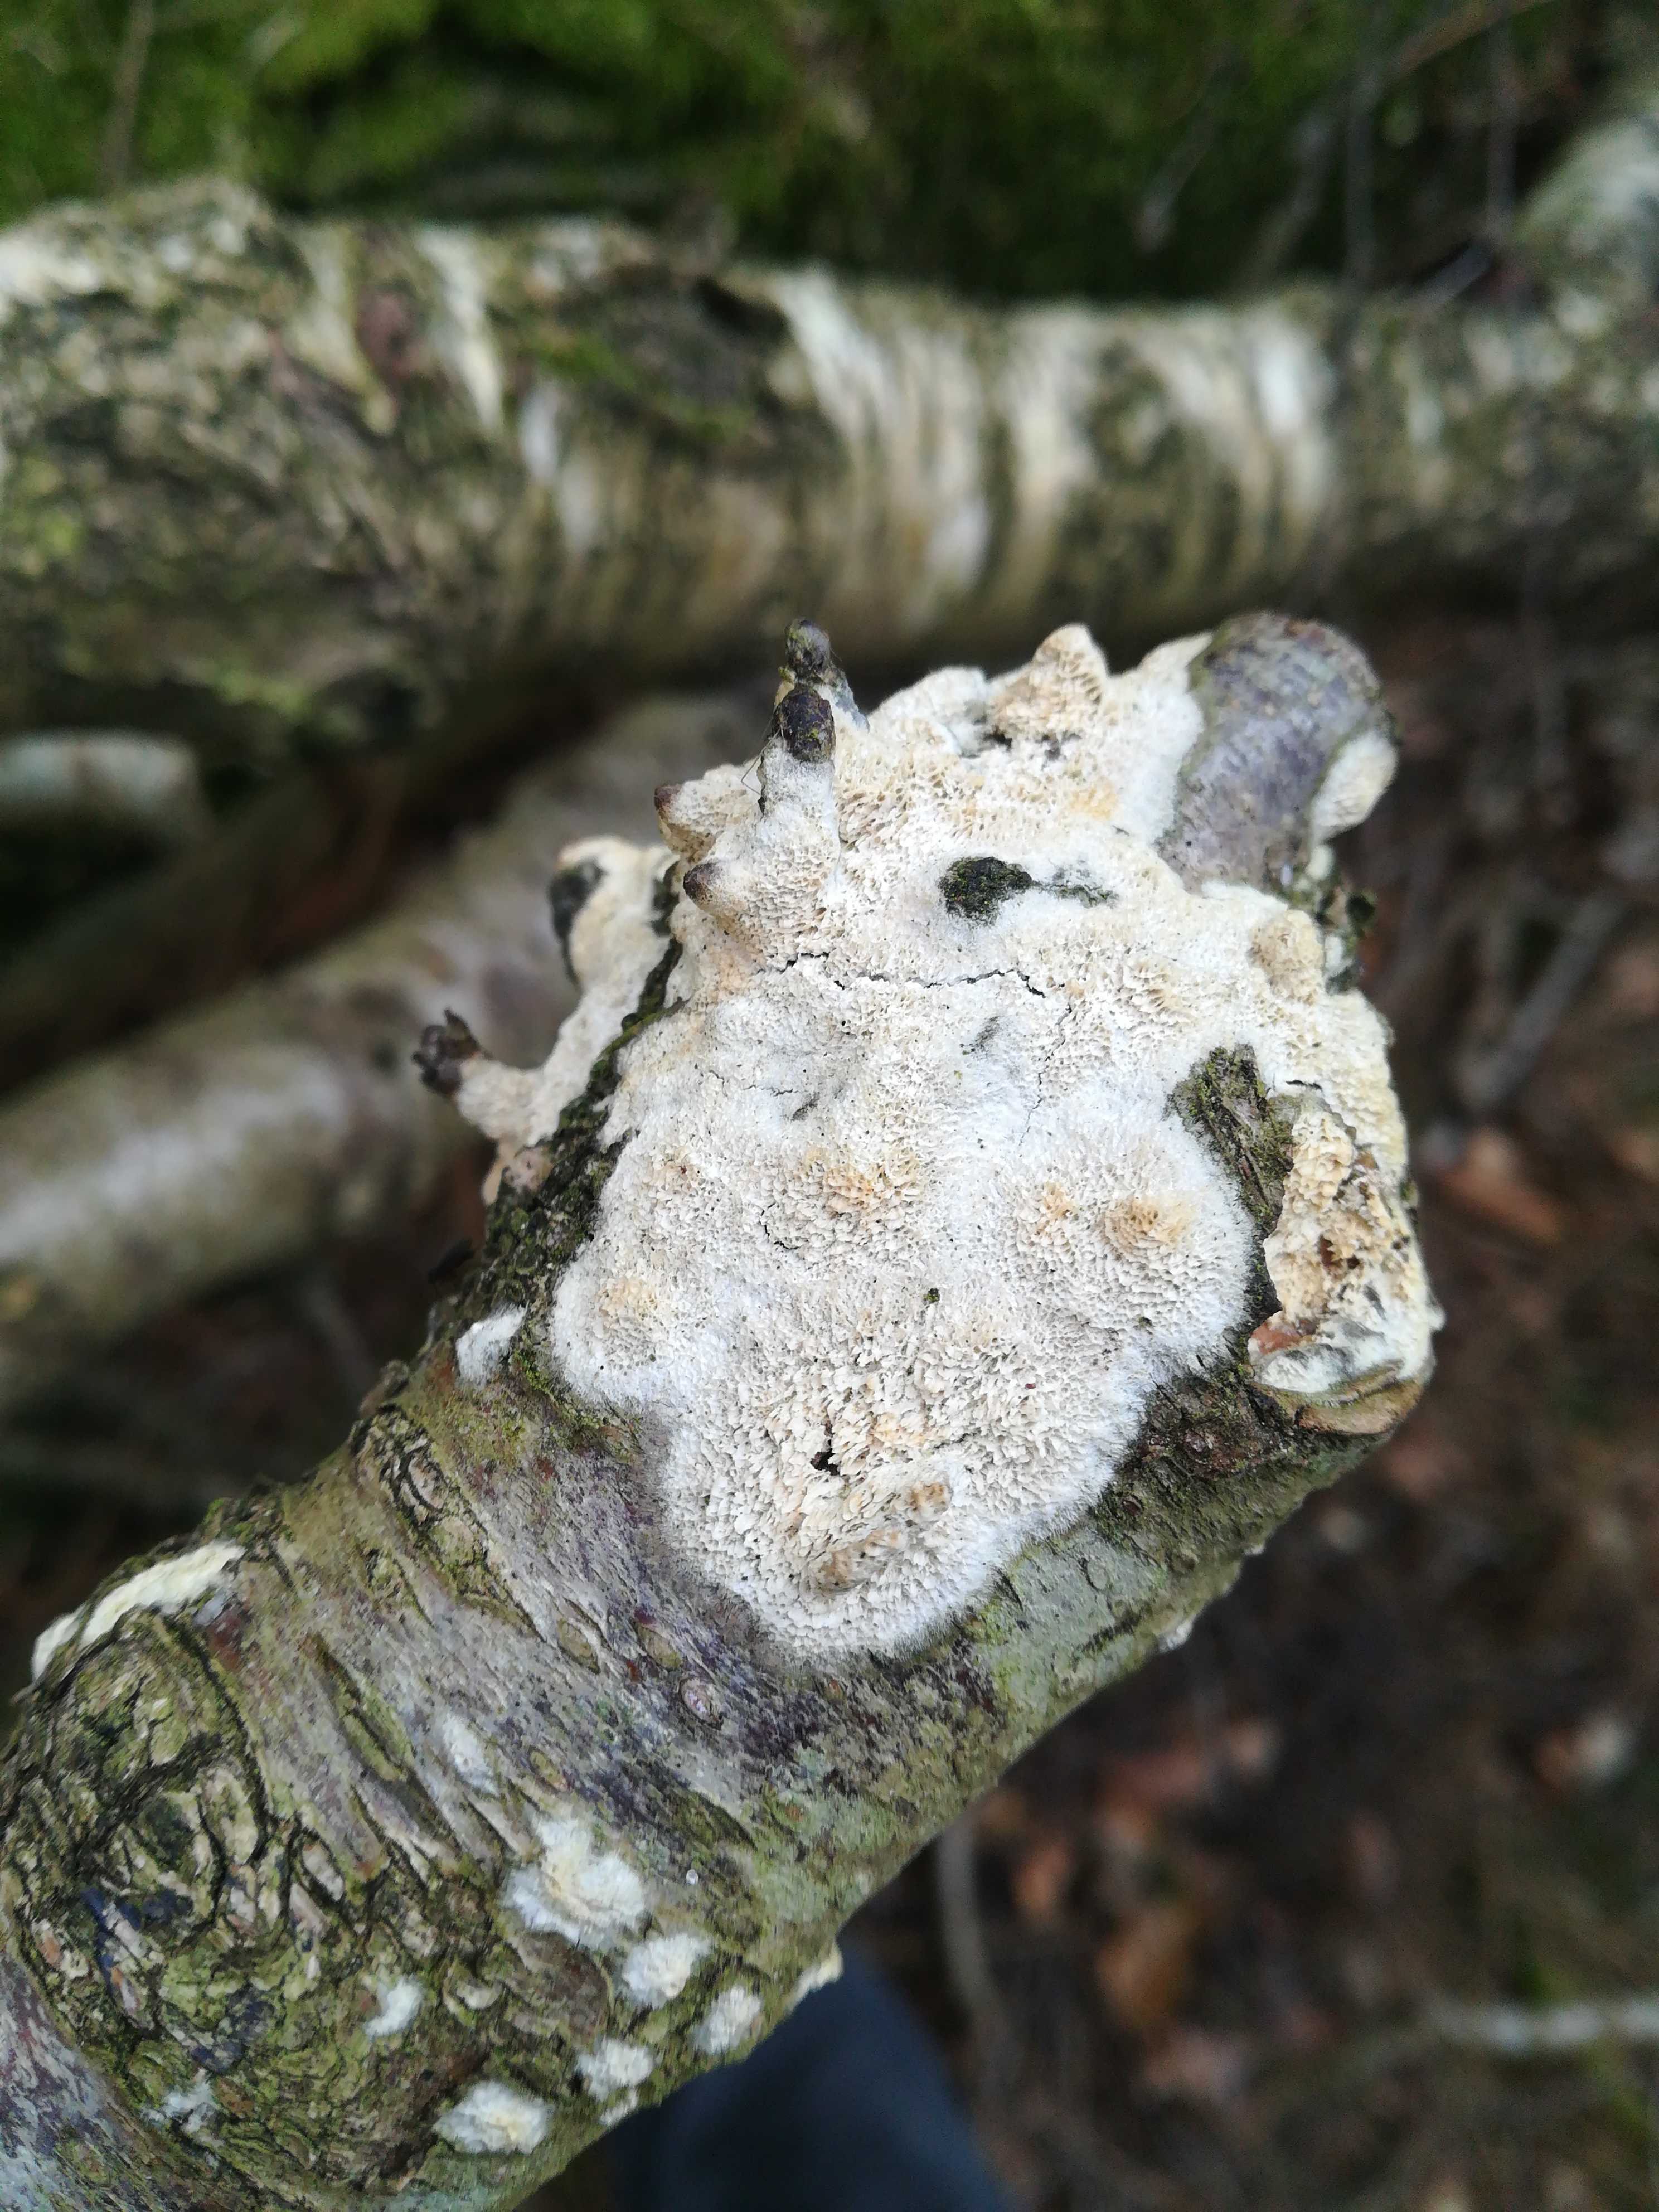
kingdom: Fungi
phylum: Basidiomycota
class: Agaricomycetes
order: Hymenochaetales
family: Schizoporaceae
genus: Xylodon
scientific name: Xylodon
